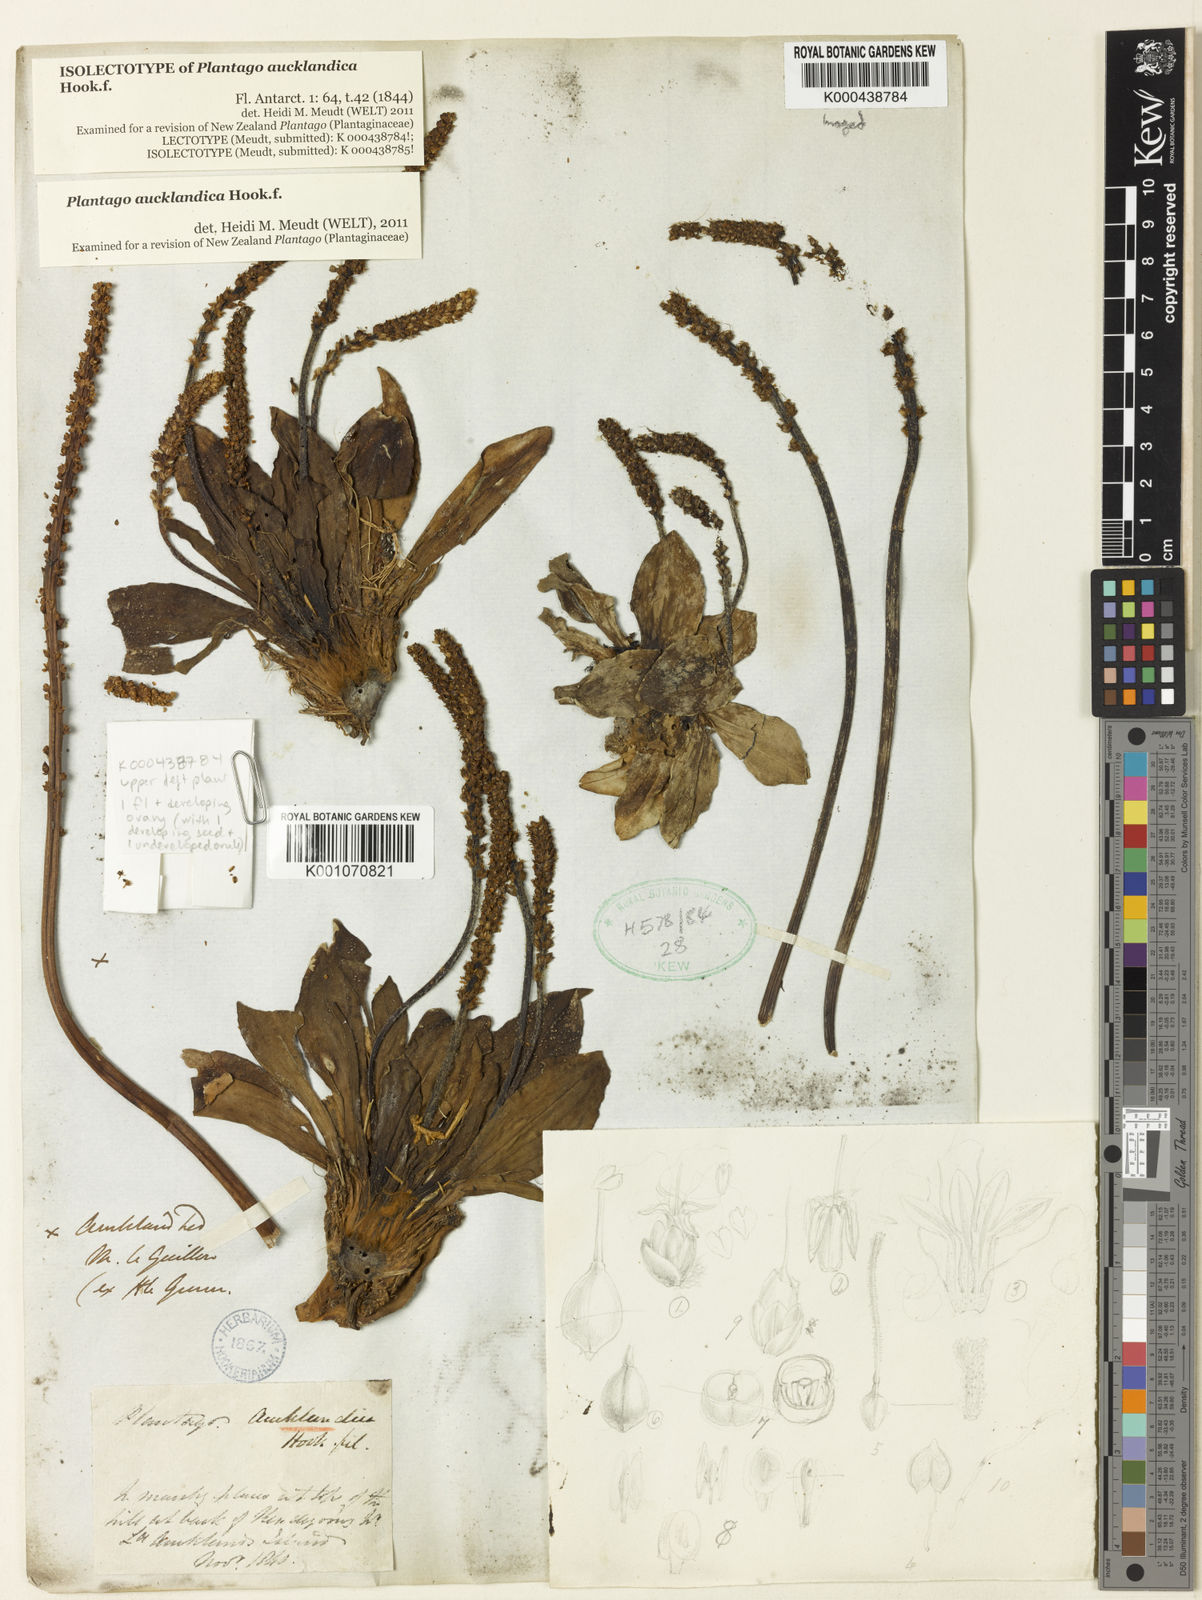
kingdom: Plantae
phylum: Tracheophyta
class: Magnoliopsida
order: Lamiales
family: Plantaginaceae
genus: Plantago
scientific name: Plantago aucklandica
